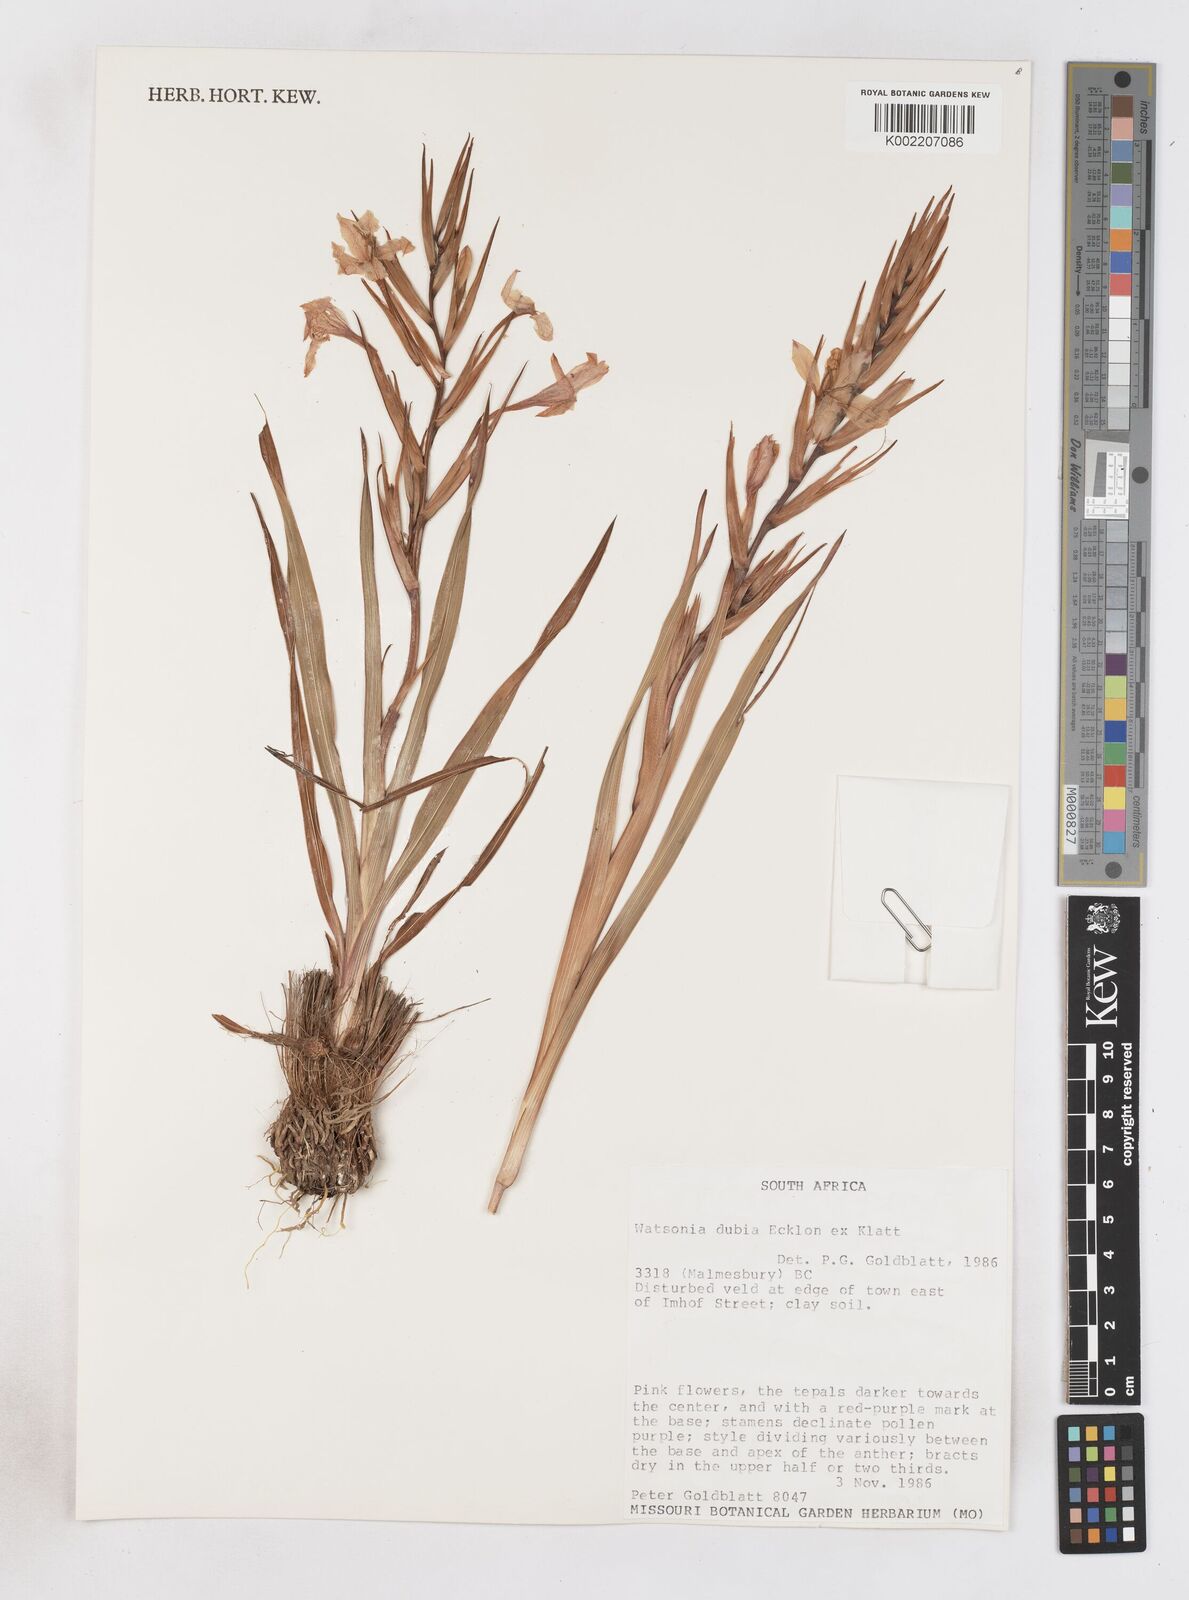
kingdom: Plantae
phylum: Tracheophyta
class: Liliopsida
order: Asparagales
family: Iridaceae
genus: Watsonia
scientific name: Watsonia dubia
